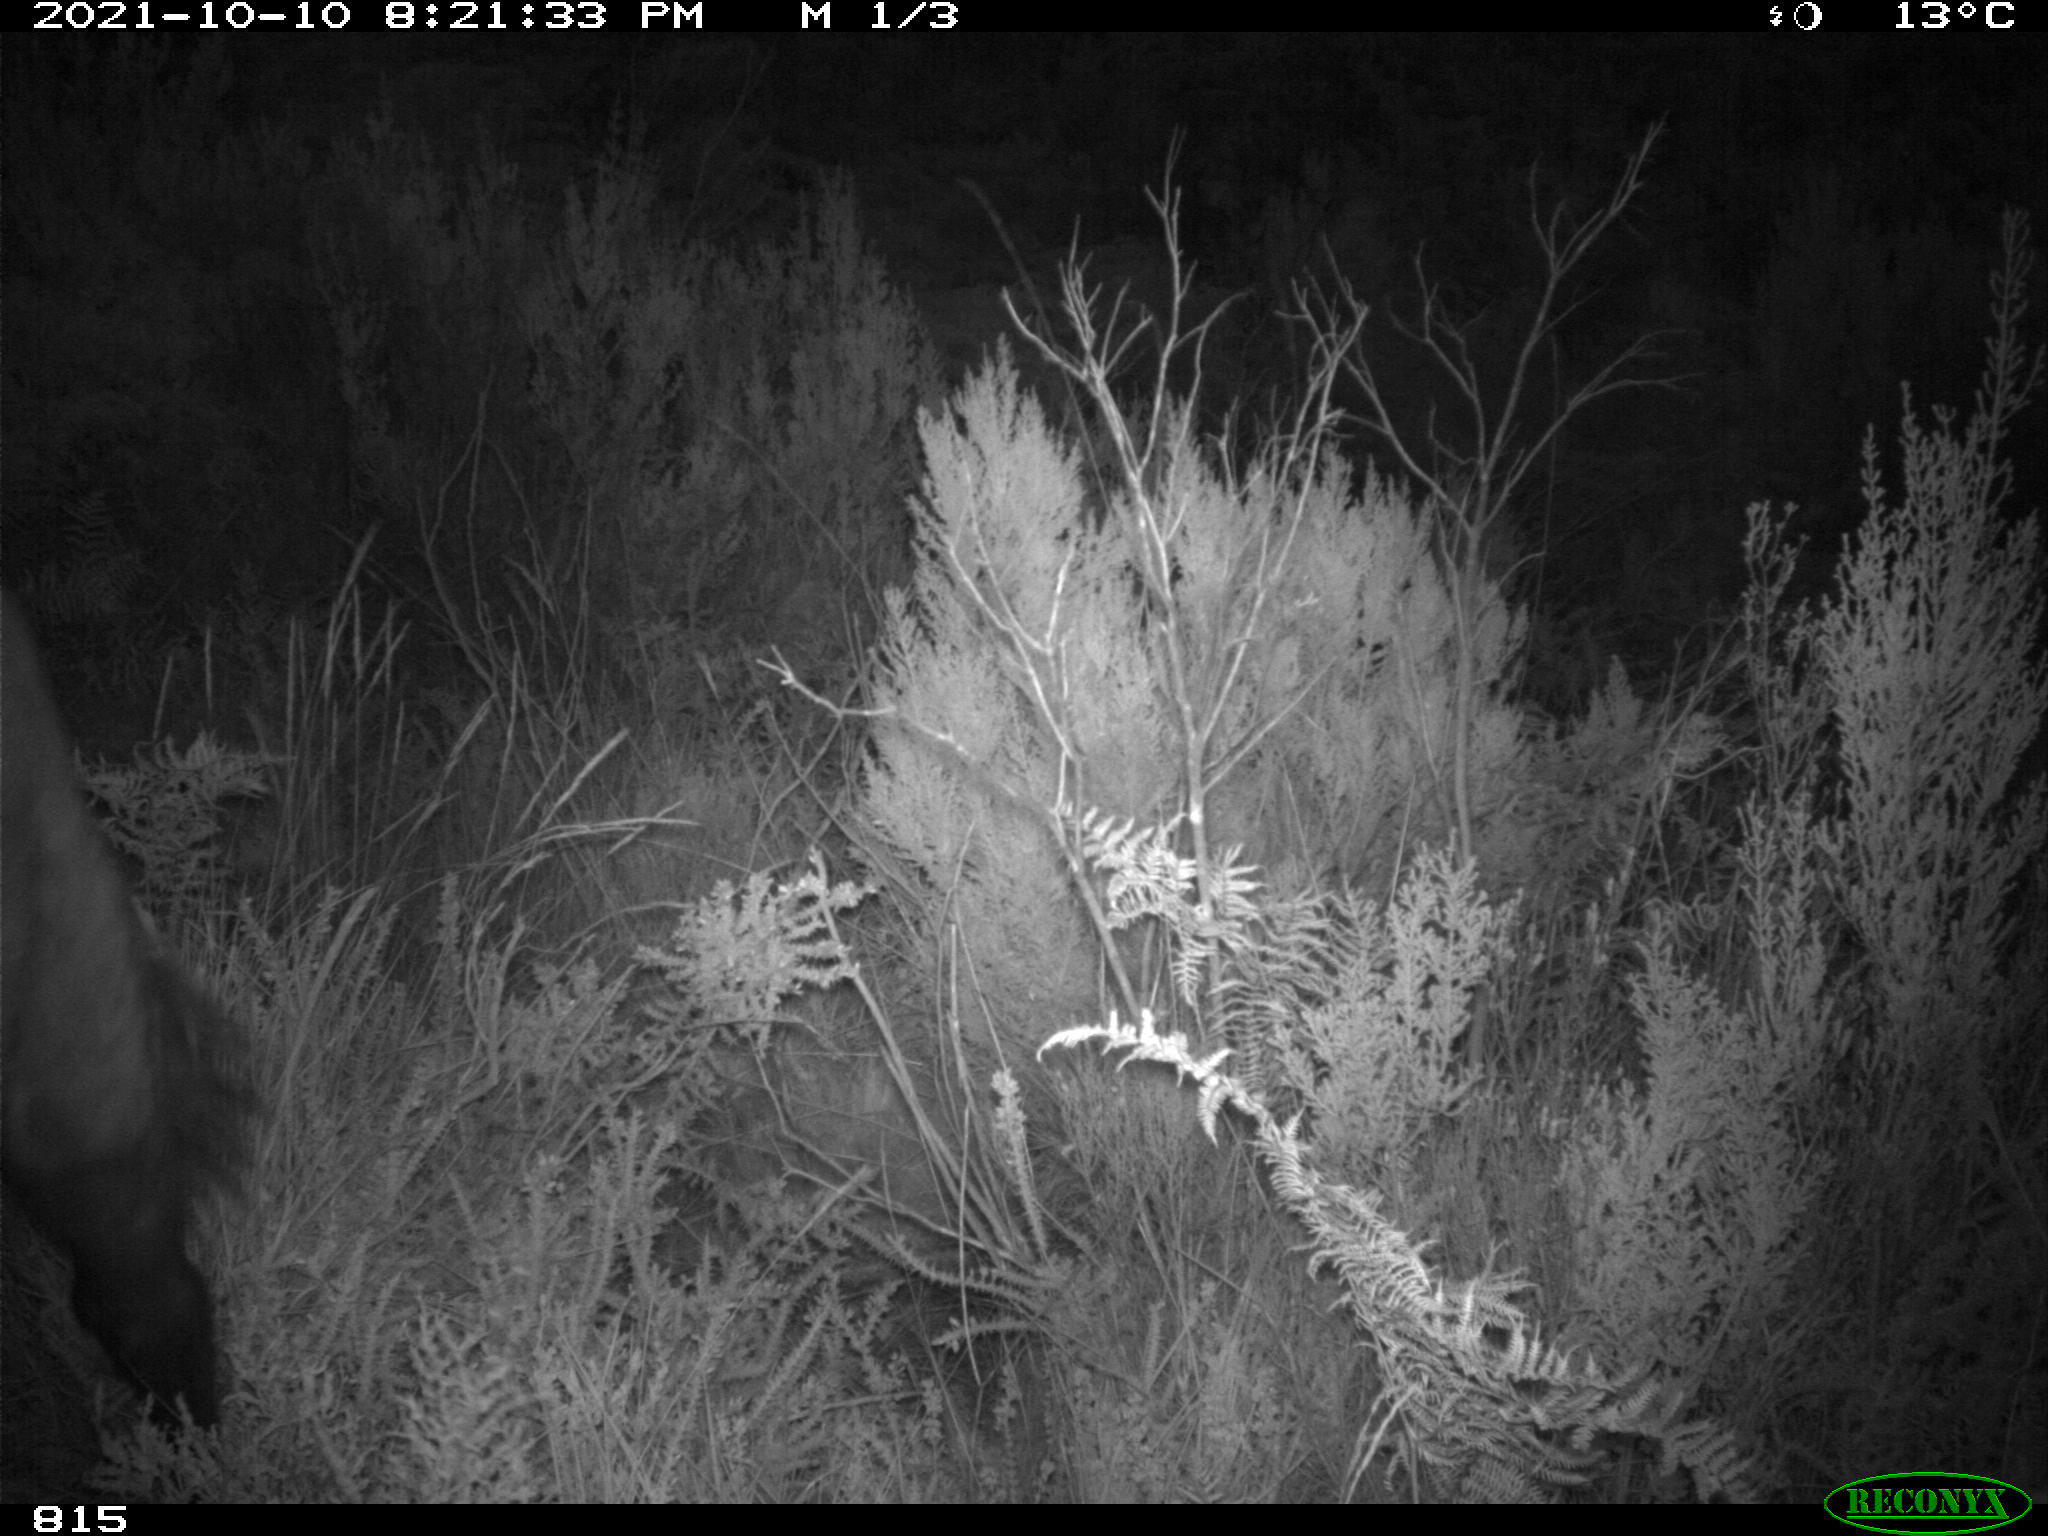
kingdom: Animalia
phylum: Chordata
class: Mammalia
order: Perissodactyla
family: Equidae
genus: Equus
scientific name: Equus caballus
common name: Horse
